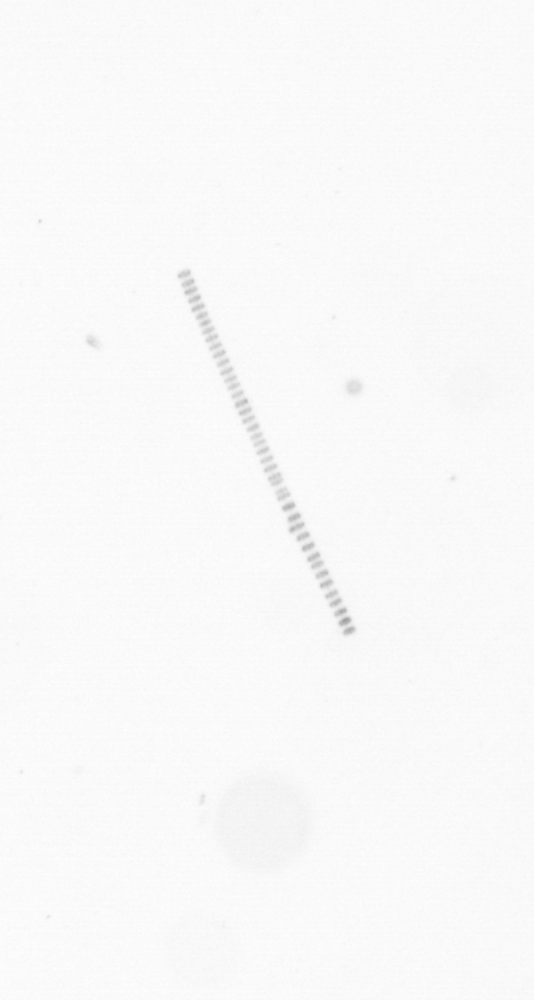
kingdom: Chromista
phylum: Ochrophyta
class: Bacillariophyceae
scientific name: Bacillariophyceae
